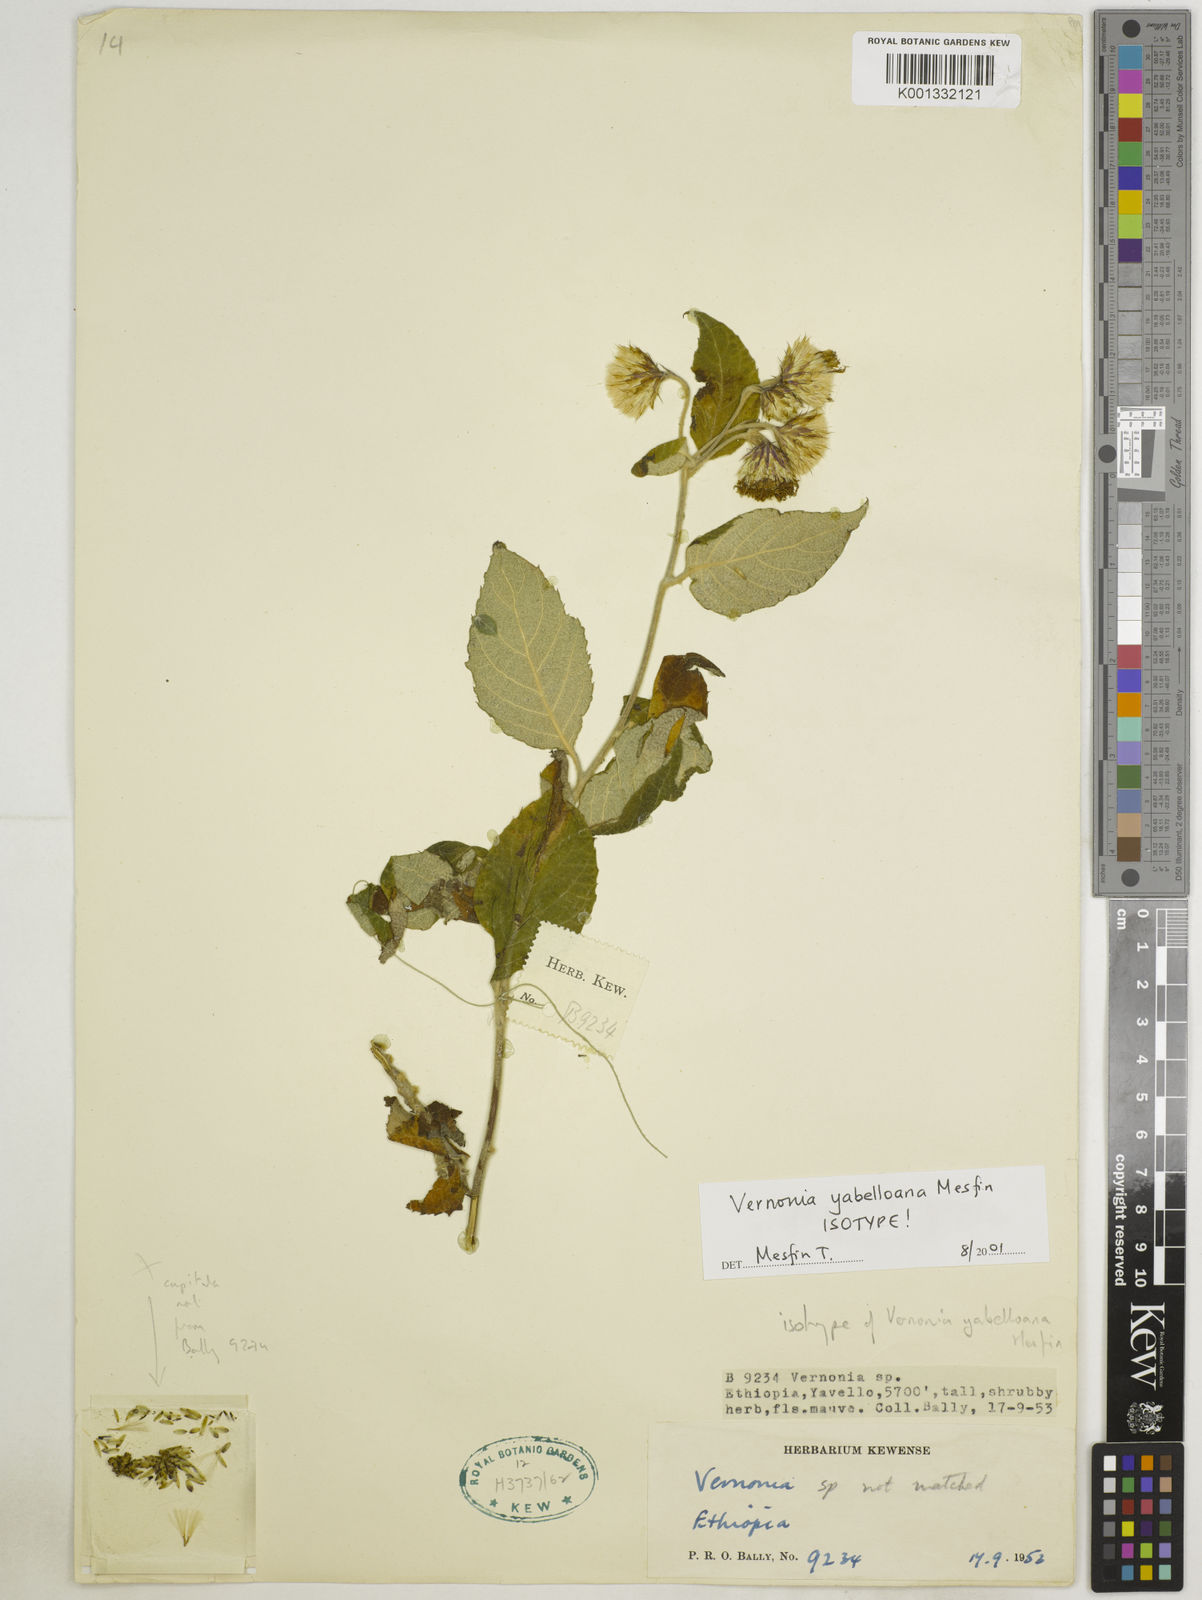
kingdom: Plantae
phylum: Tracheophyta
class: Magnoliopsida
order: Asterales
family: Asteraceae
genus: Vernonia
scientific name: Vernonia yabelloana
